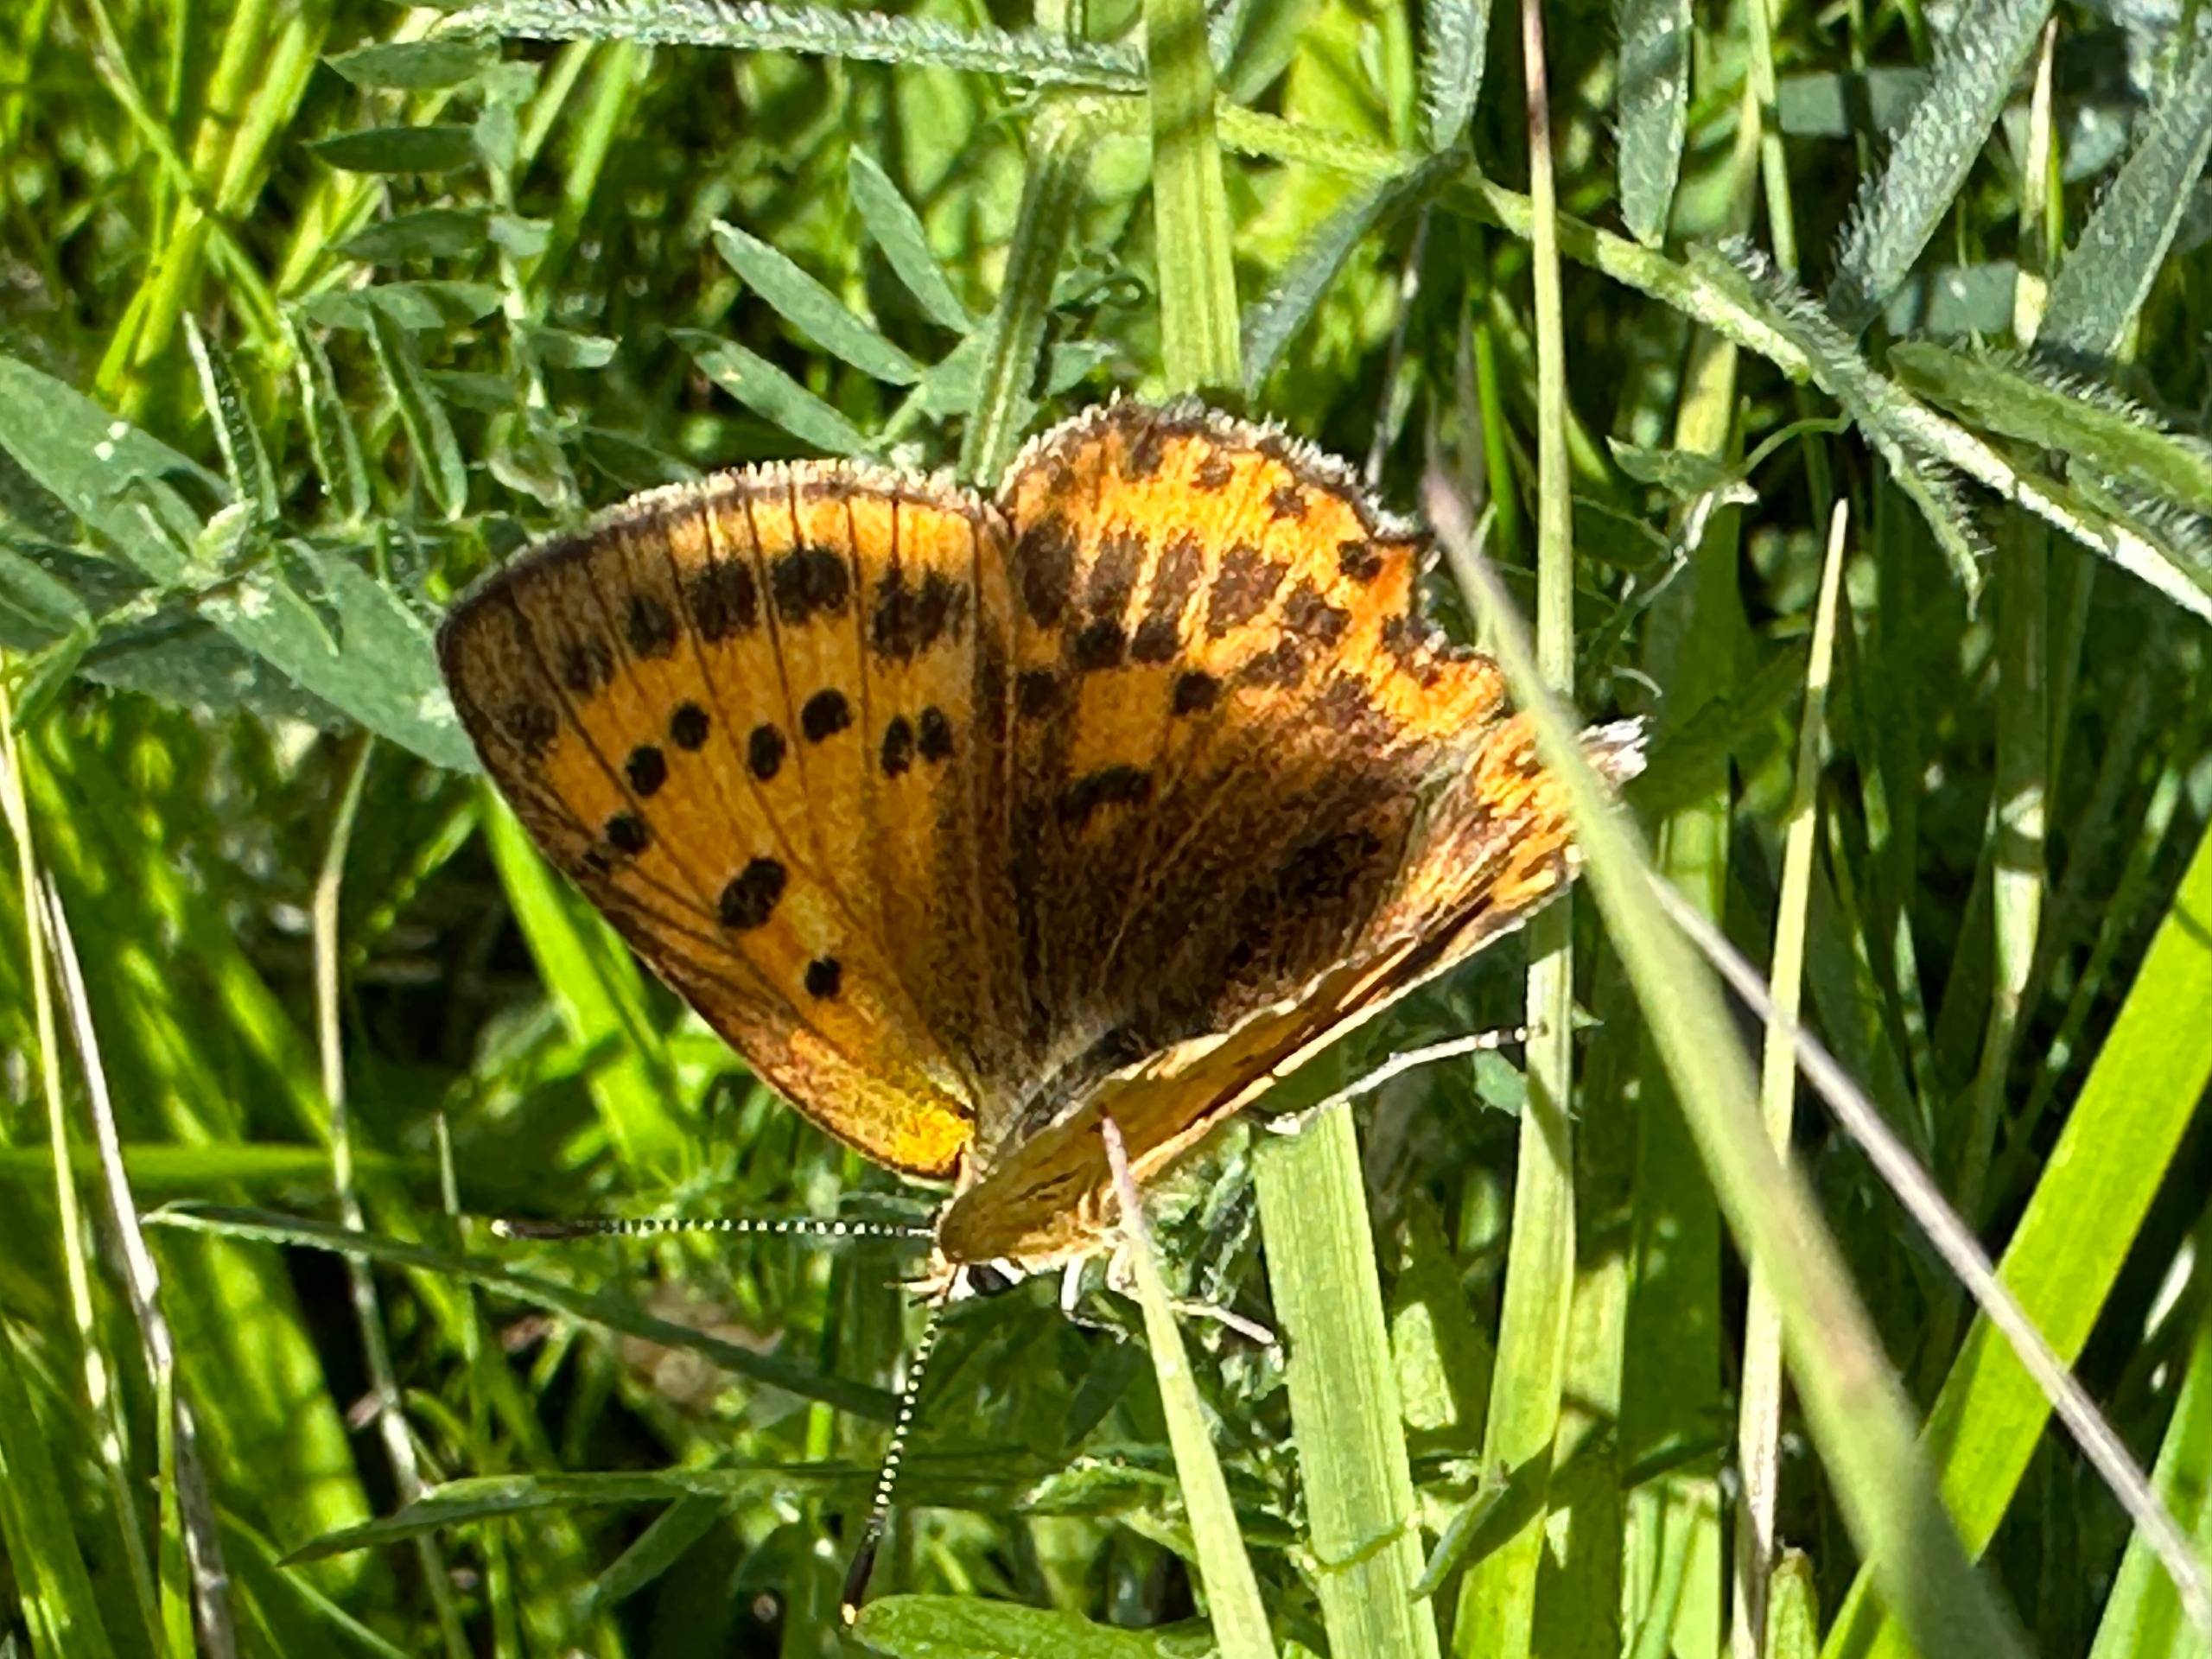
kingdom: Animalia
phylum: Arthropoda
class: Insecta
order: Lepidoptera
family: Lycaenidae
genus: Lycaena
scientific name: Lycaena virgaureae
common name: Dukatsommerfugl
